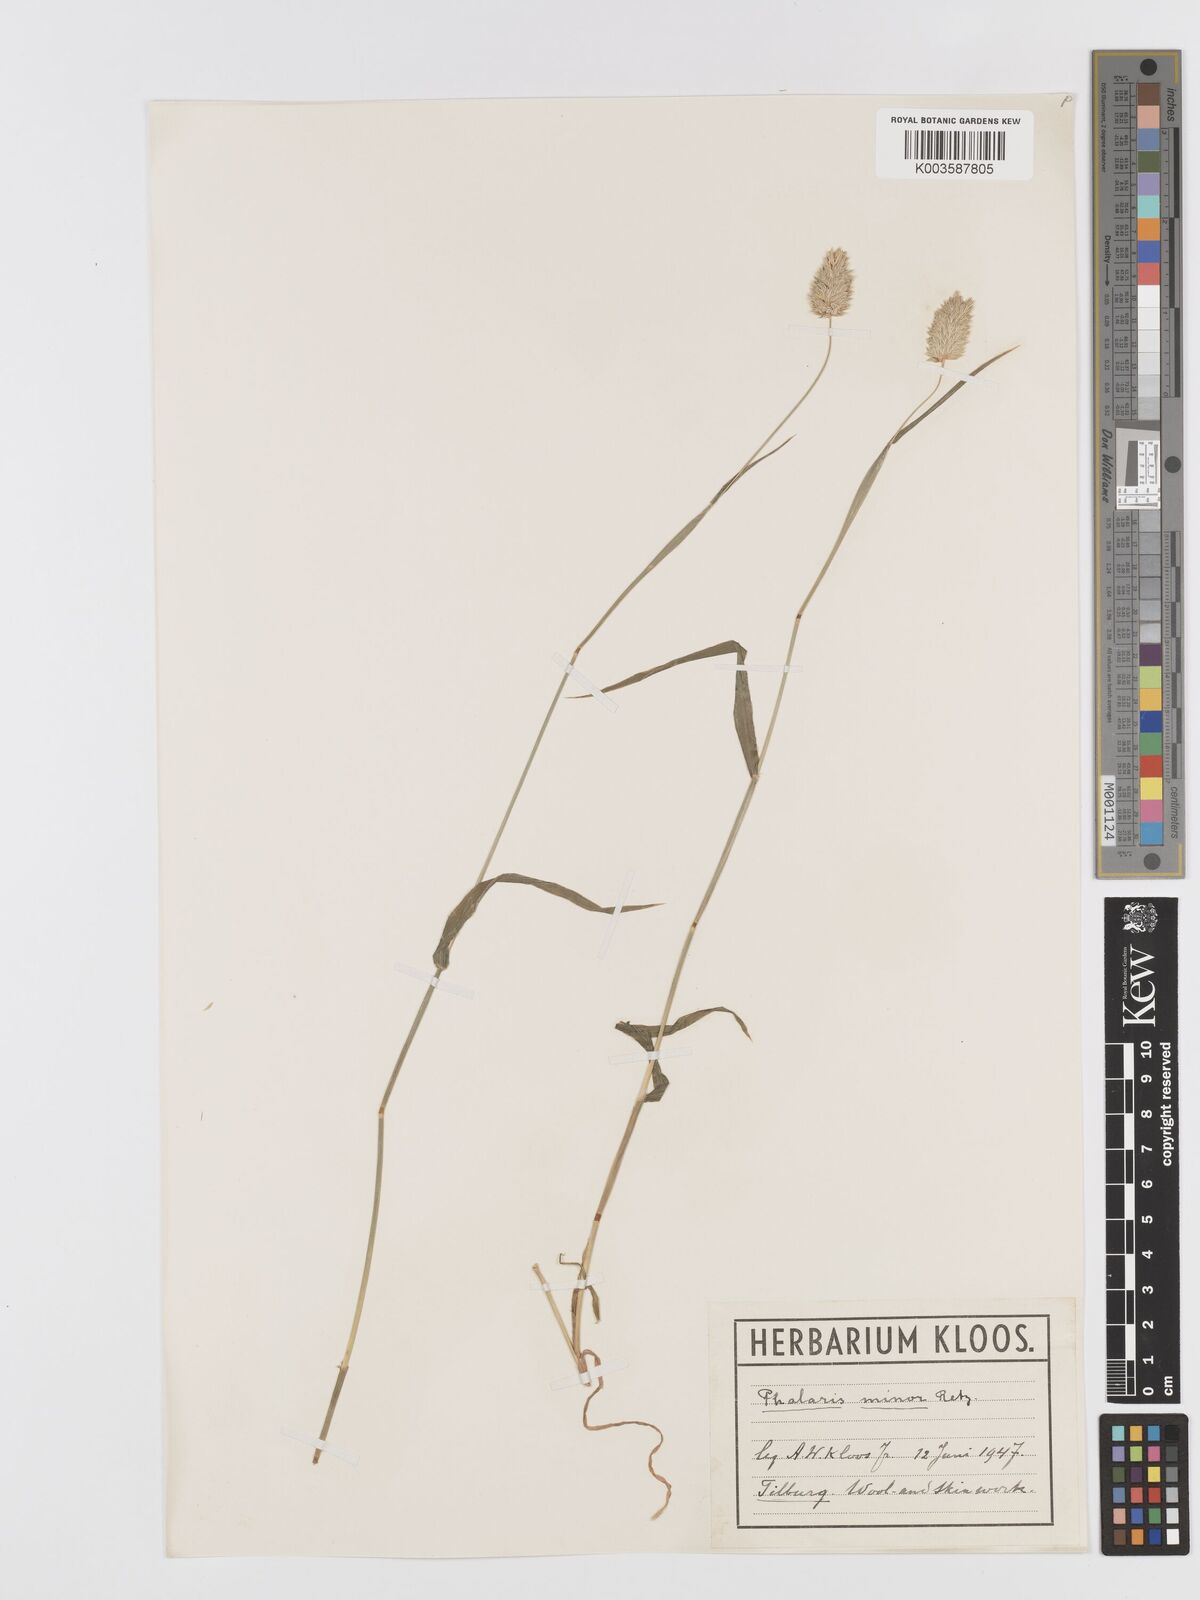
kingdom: Plantae
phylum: Tracheophyta
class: Liliopsida
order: Poales
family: Poaceae
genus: Phalaris
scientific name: Phalaris minor
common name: Littleseed canarygrass
